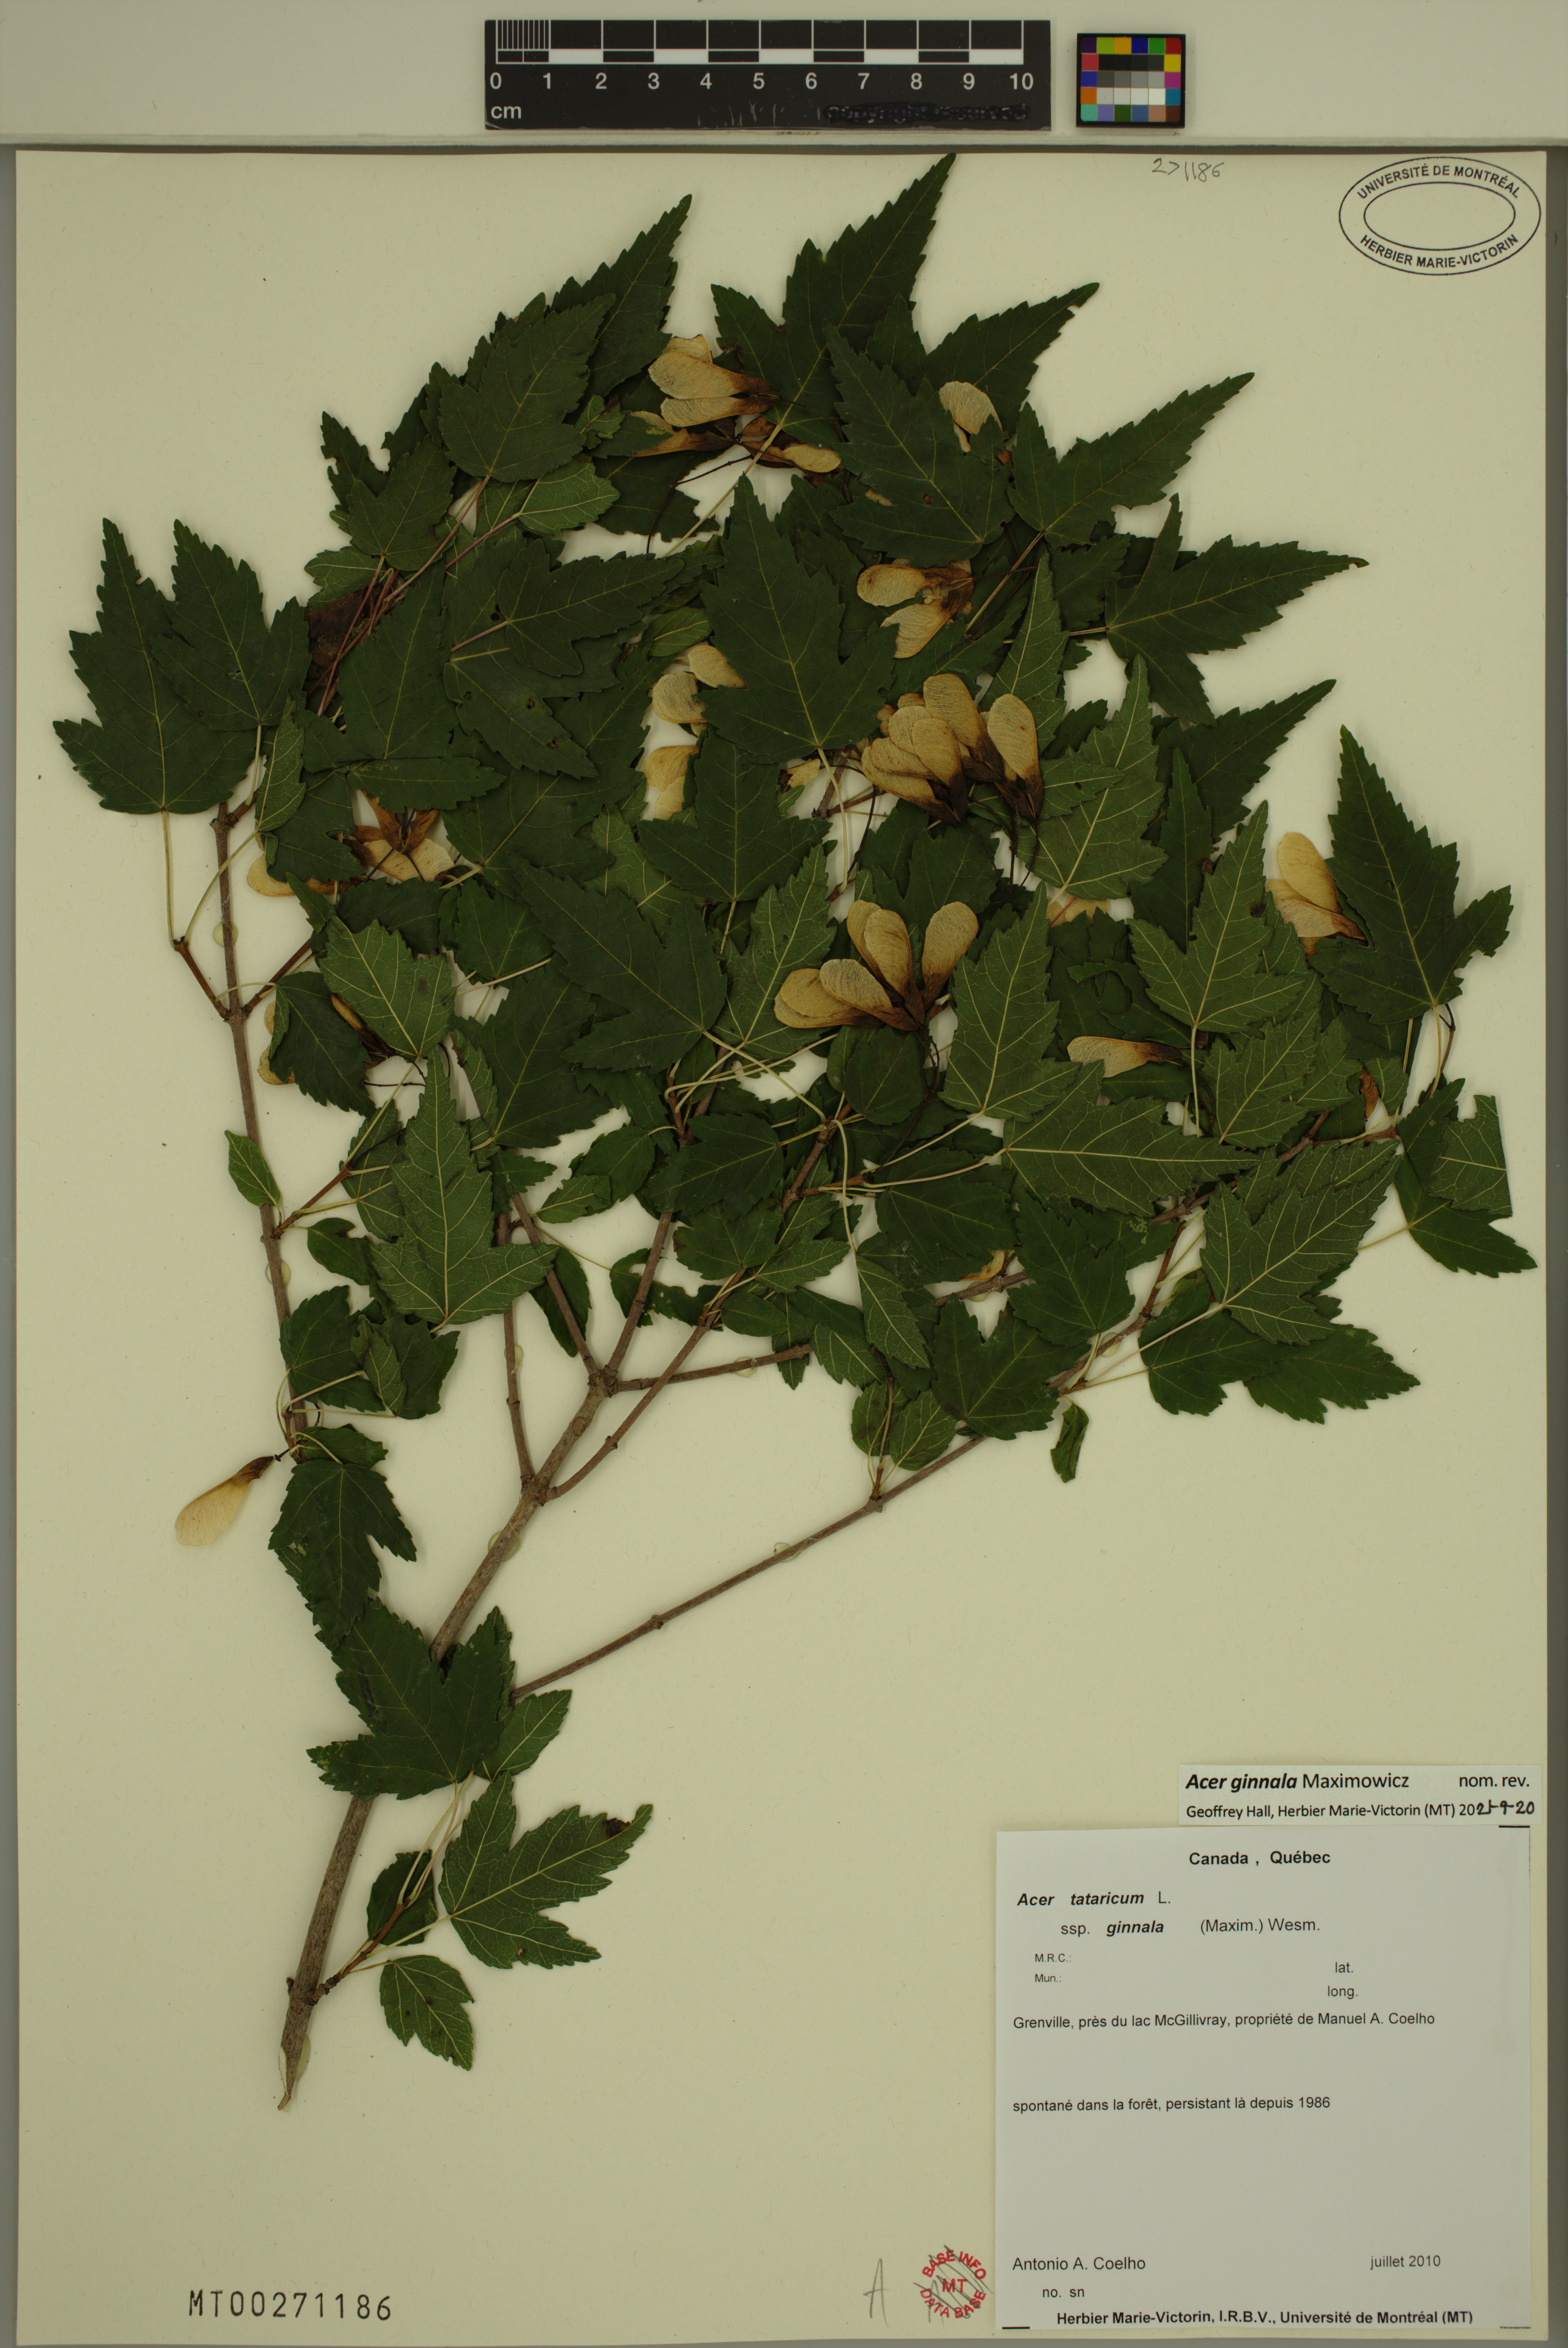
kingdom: Plantae
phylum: Tracheophyta
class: Magnoliopsida
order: Sapindales
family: Sapindaceae
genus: Acer
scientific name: Acer tataricum
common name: Tartar maple
